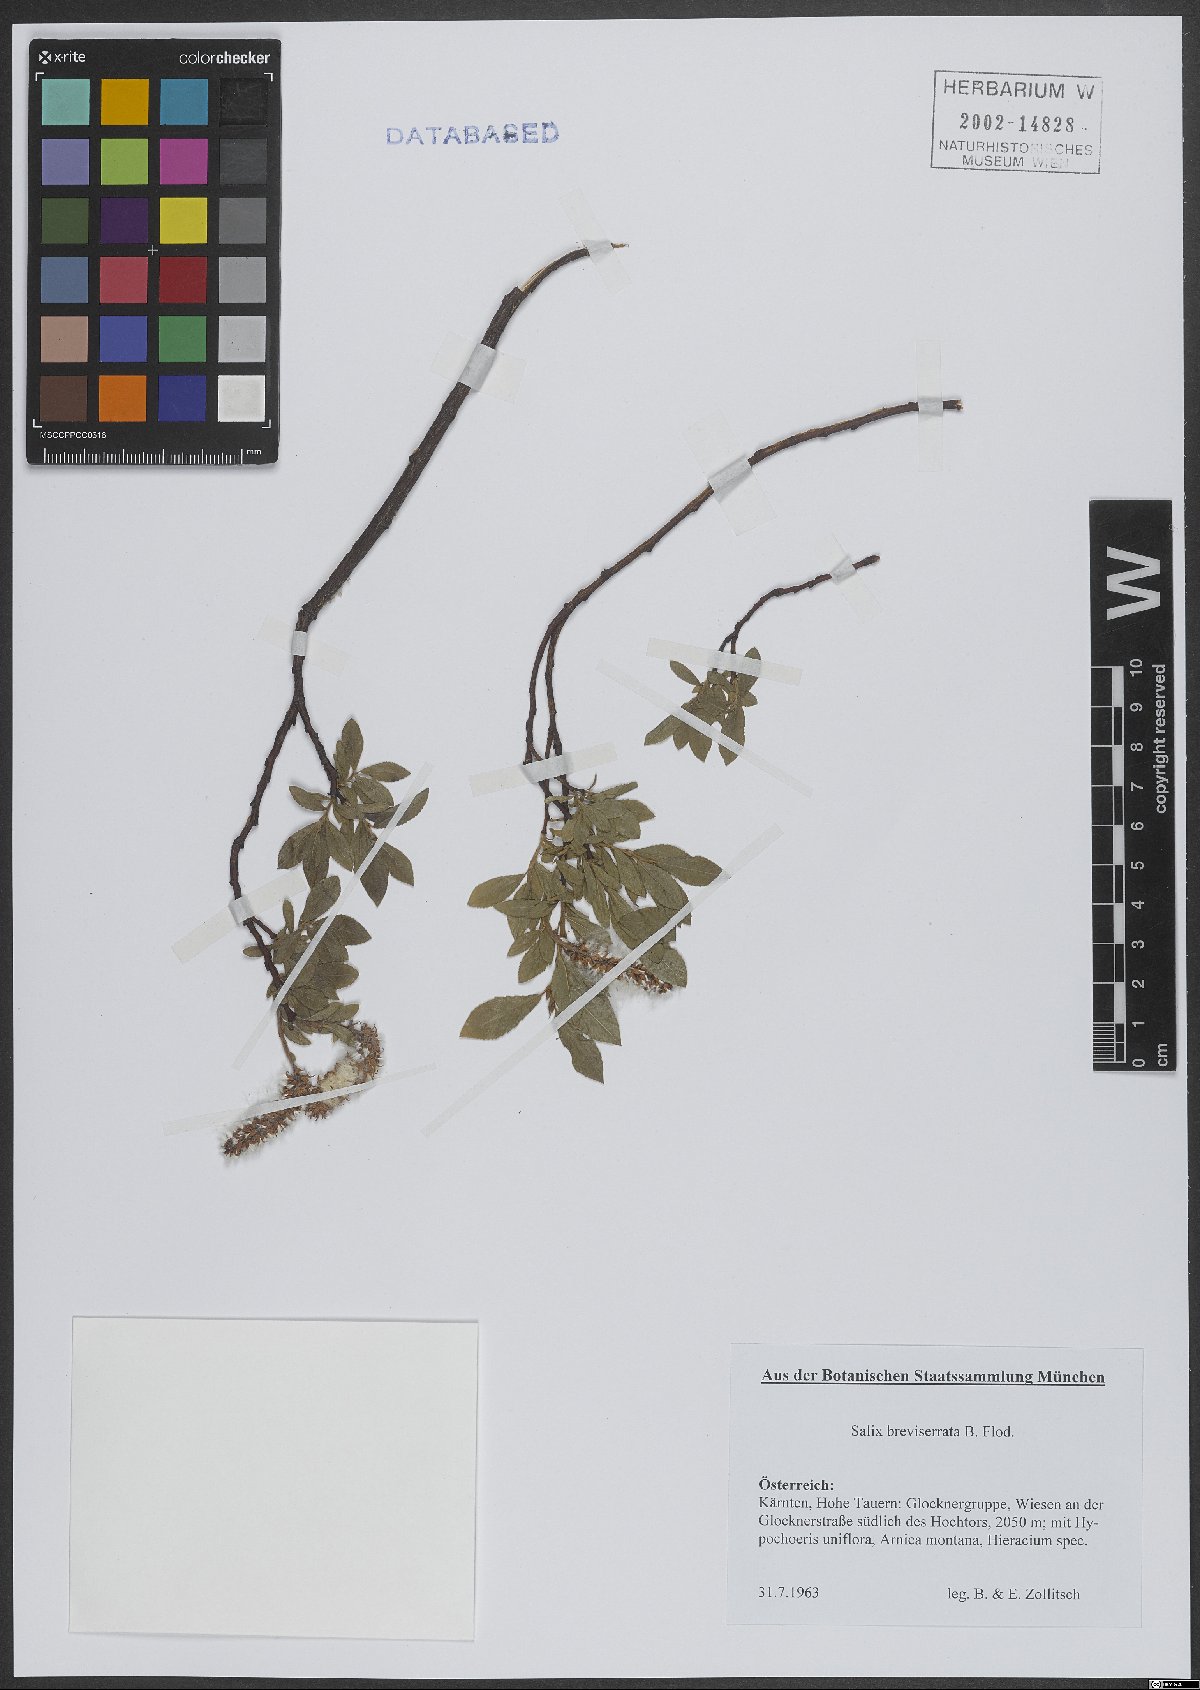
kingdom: Plantae
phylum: Tracheophyta
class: Magnoliopsida
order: Malpighiales
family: Salicaceae
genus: Salix
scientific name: Salix breviserrata
